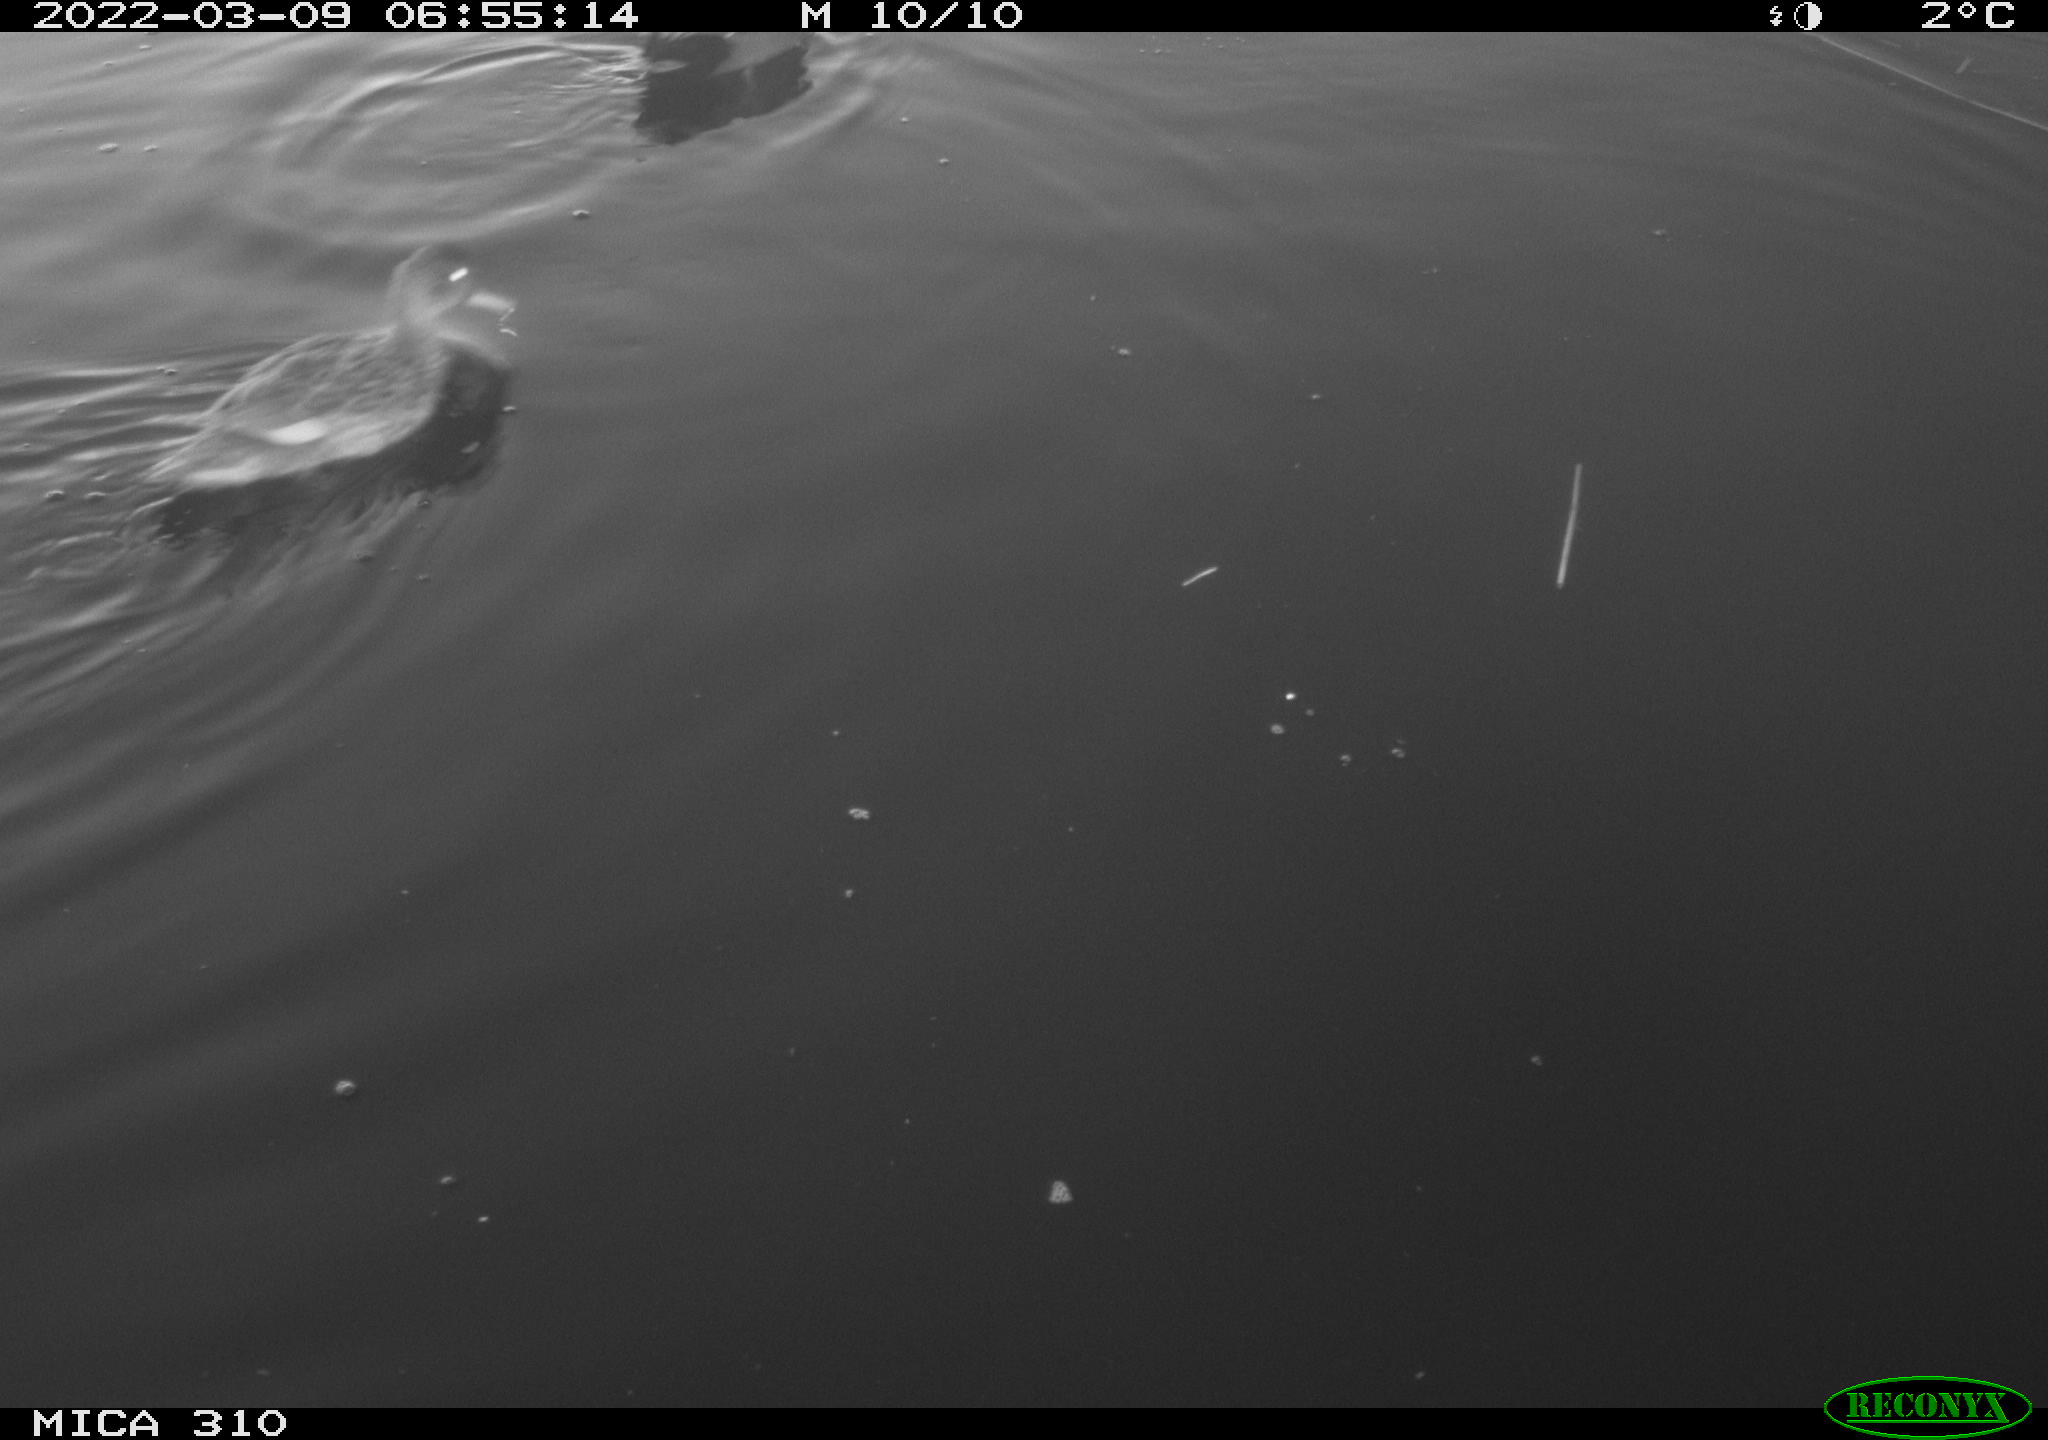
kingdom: Animalia
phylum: Chordata
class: Aves
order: Gruiformes
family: Rallidae
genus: Gallinula
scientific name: Gallinula chloropus
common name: Common moorhen
